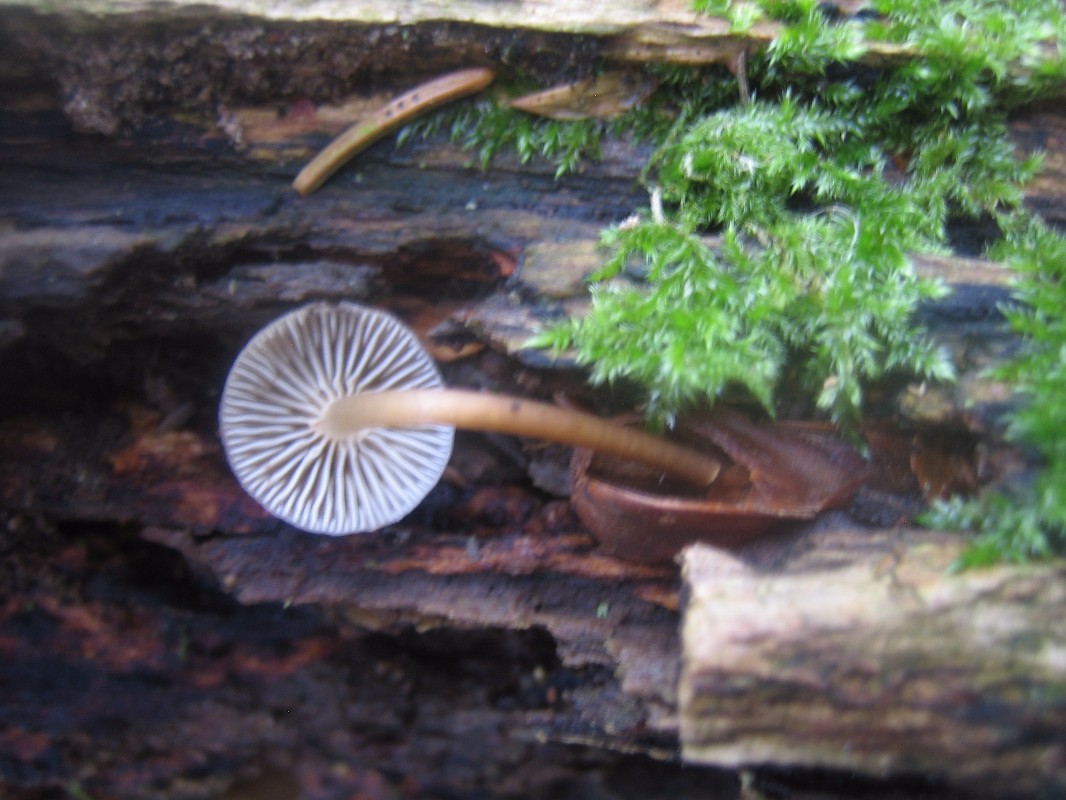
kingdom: Fungi
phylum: Basidiomycota
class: Agaricomycetes
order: Agaricales
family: Mycenaceae
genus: Mycena
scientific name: Mycena tintinnabulum
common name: vinter-huesvamp
